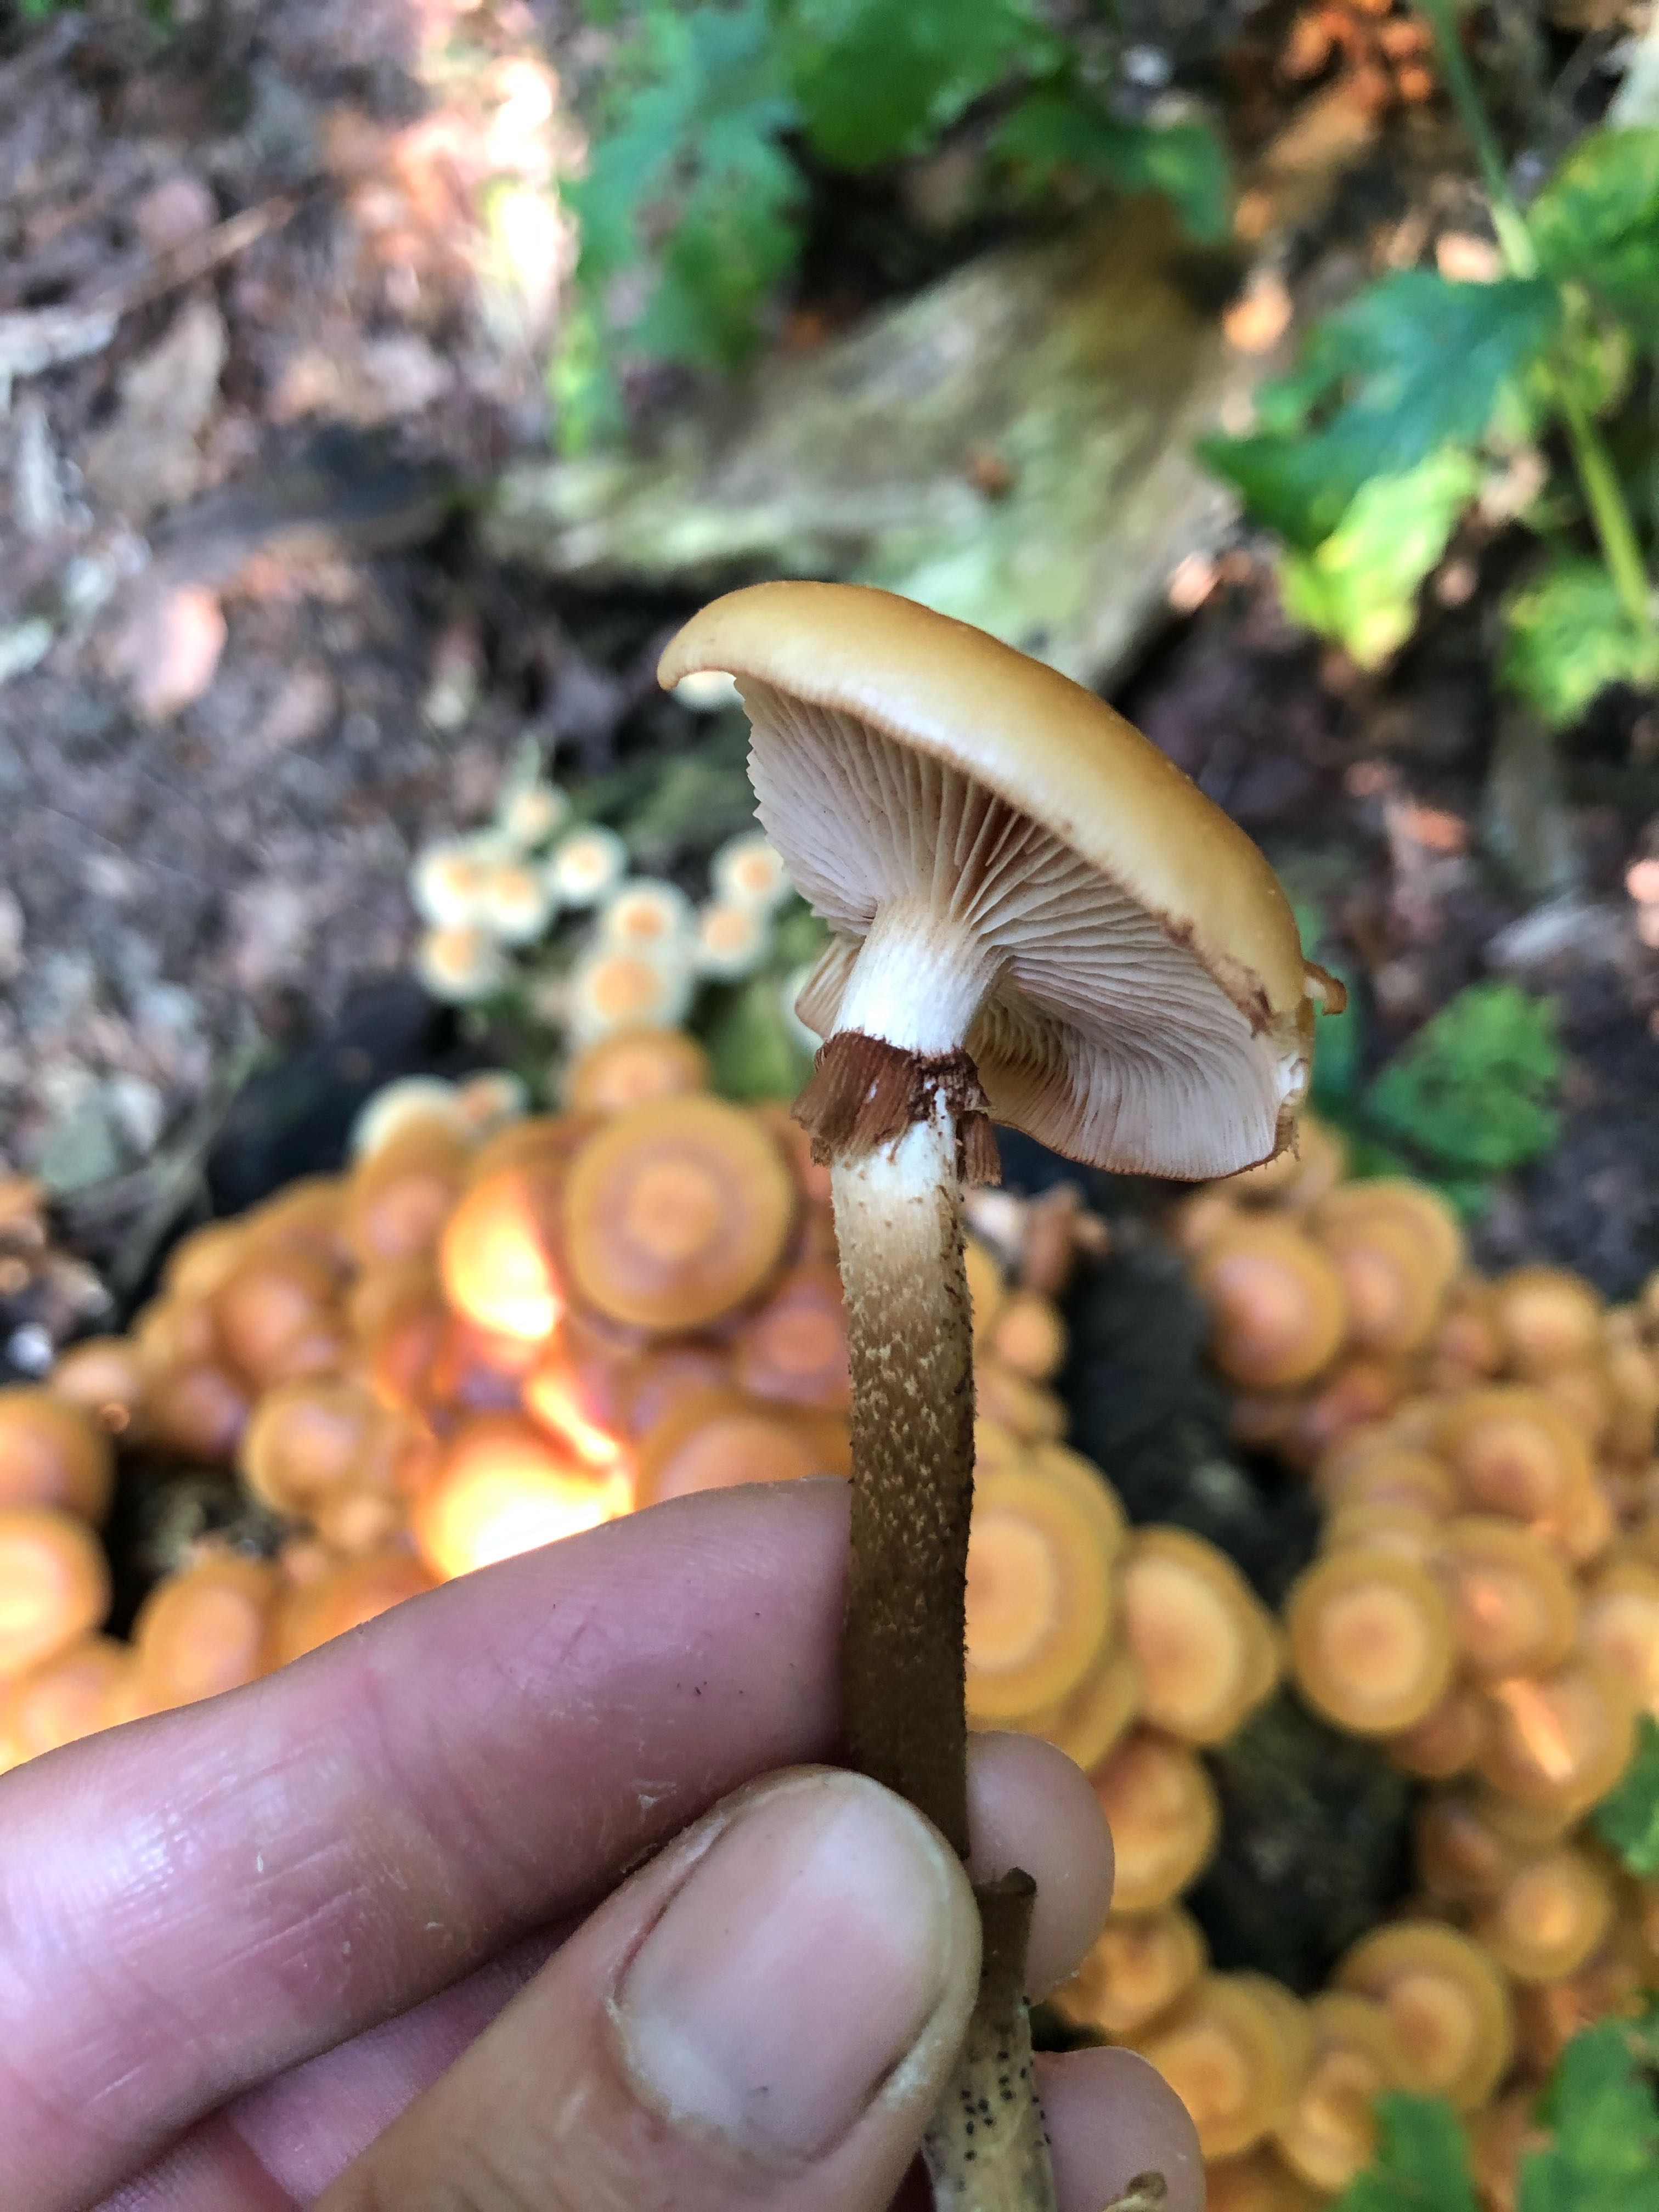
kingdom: Fungi
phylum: Basidiomycota
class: Agaricomycetes
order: Agaricales
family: Strophariaceae
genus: Kuehneromyces
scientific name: Kuehneromyces mutabilis
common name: foranderlig skælhat
